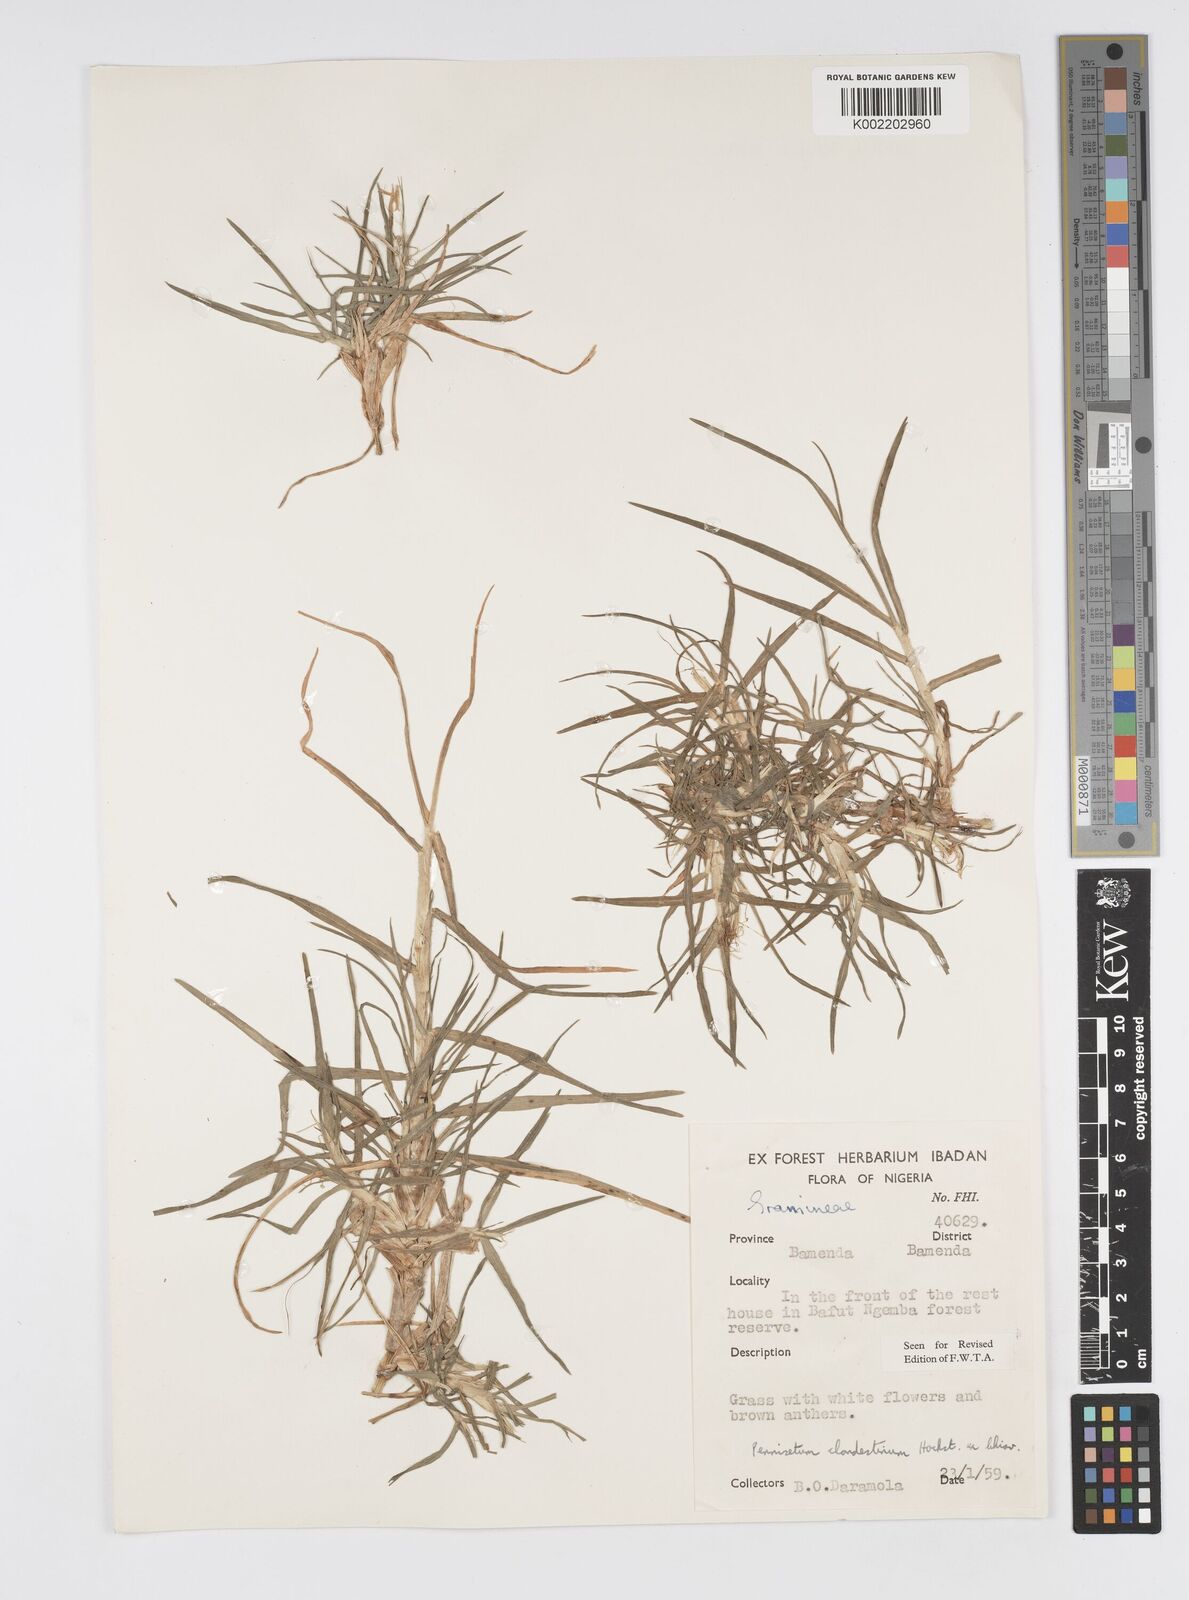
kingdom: Plantae
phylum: Tracheophyta
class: Liliopsida
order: Poales
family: Poaceae
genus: Cenchrus
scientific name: Cenchrus clandestinus
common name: Kikuyugrass
